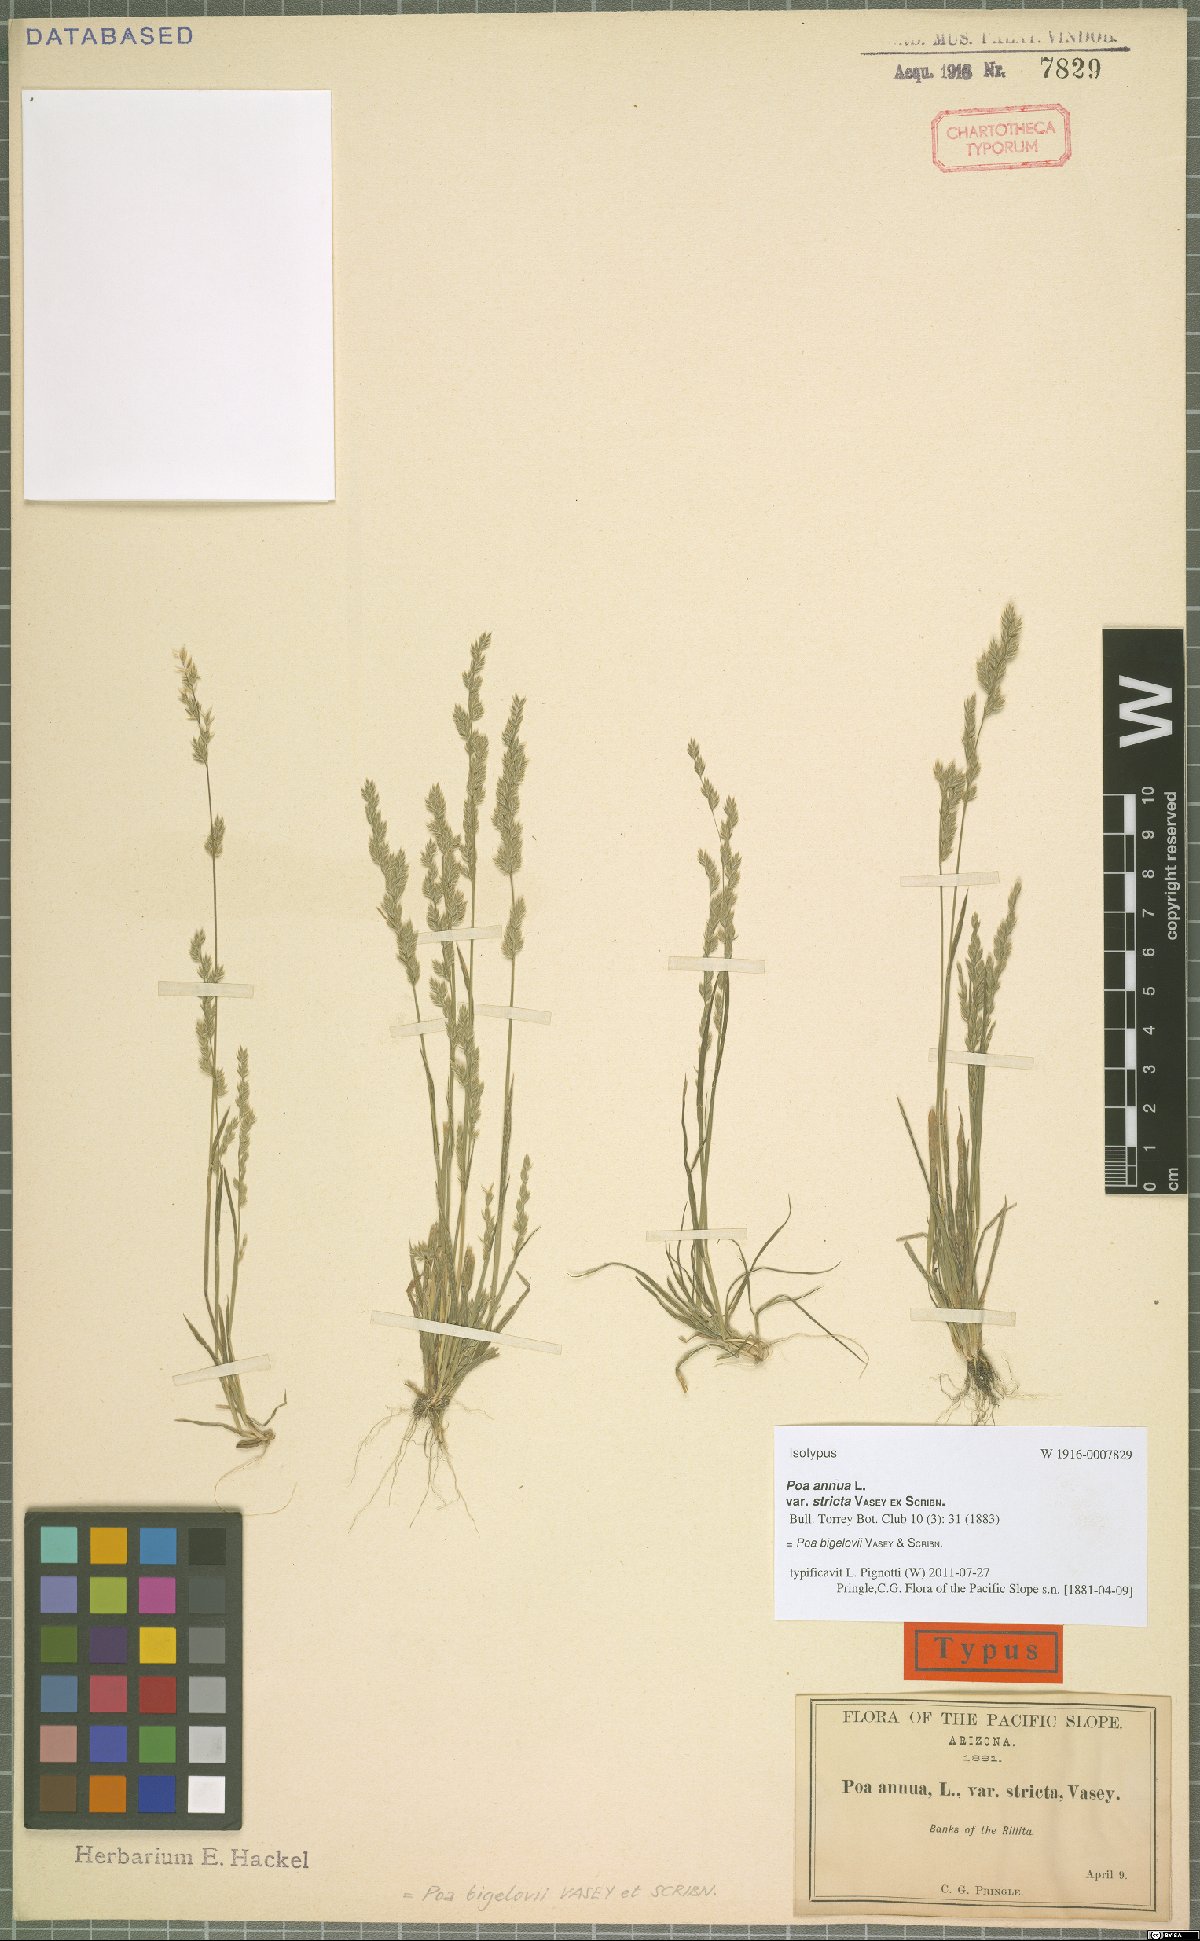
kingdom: Plantae
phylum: Tracheophyta
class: Liliopsida
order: Poales
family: Poaceae
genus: Poa
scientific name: Poa bigelovii
